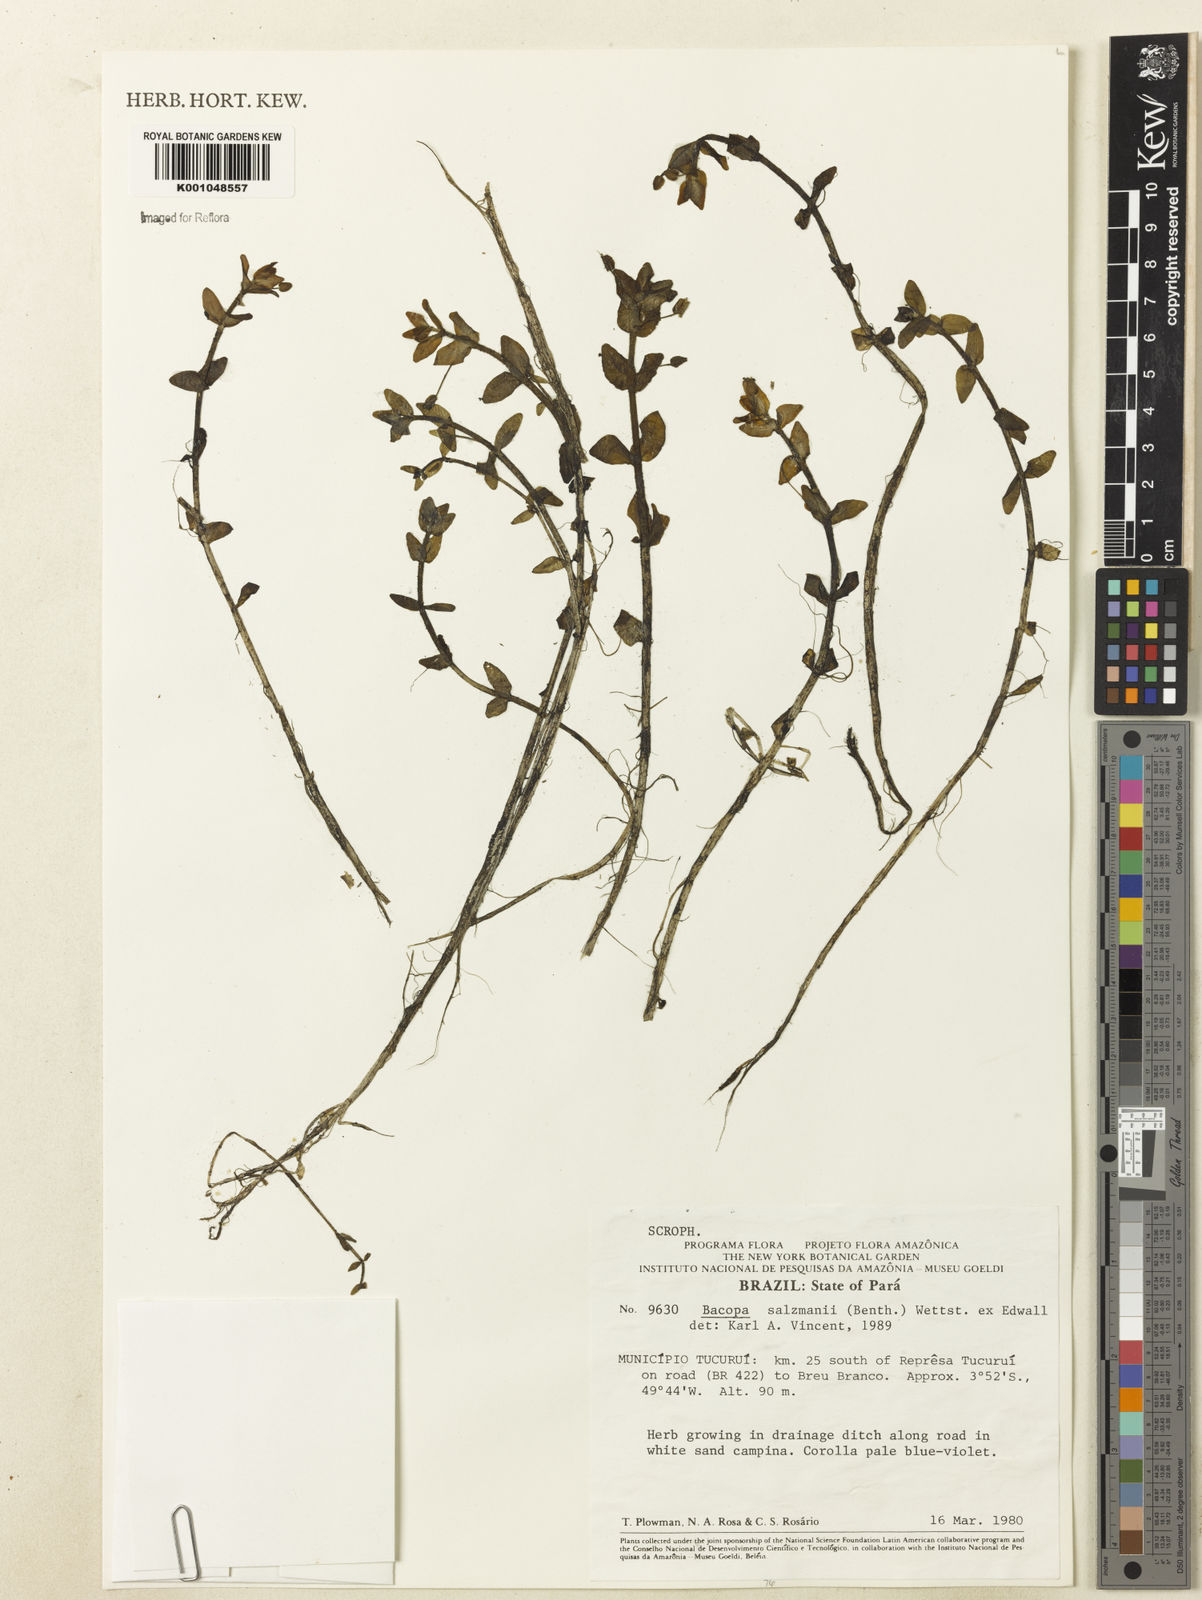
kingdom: Plantae
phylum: Tracheophyta
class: Magnoliopsida
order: Lamiales
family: Plantaginaceae
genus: Bacopa
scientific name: Bacopa salzmannii
